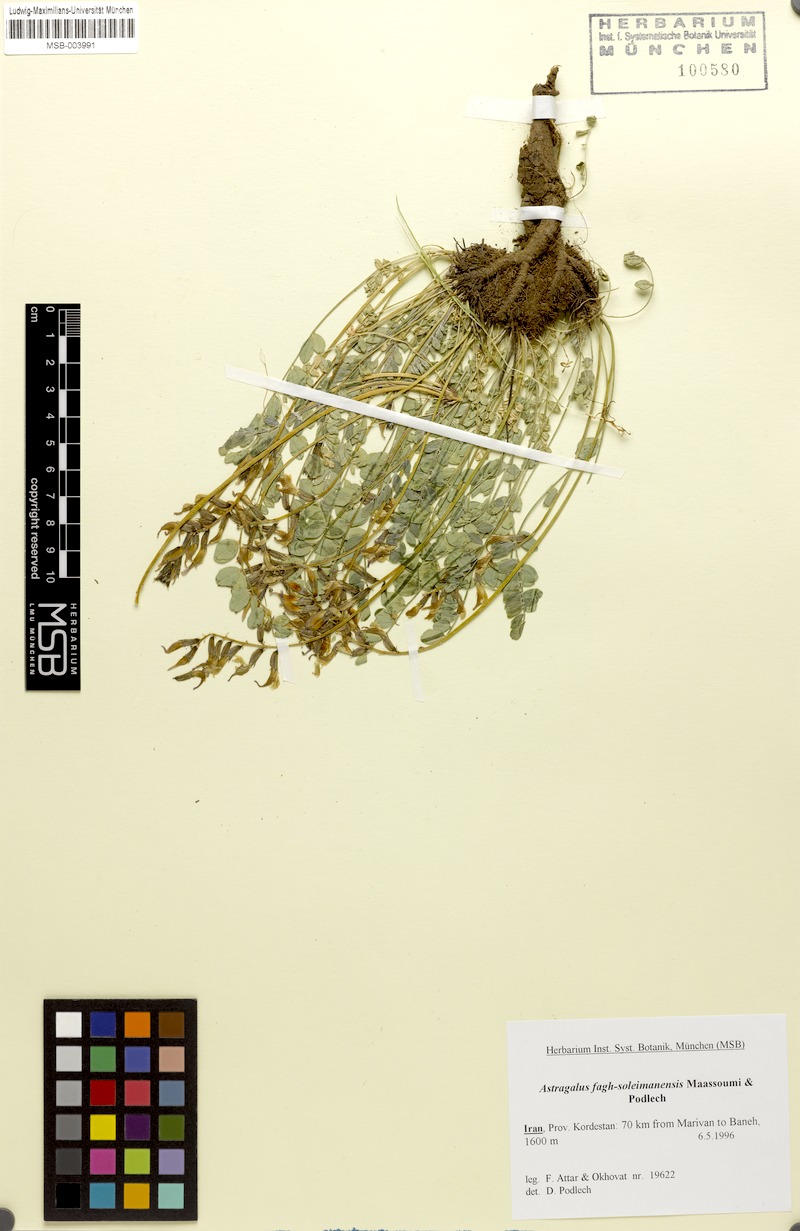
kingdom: Plantae
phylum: Tracheophyta
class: Magnoliopsida
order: Fabales
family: Fabaceae
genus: Astragalus
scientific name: Astragalus fagh-soleimanensis
